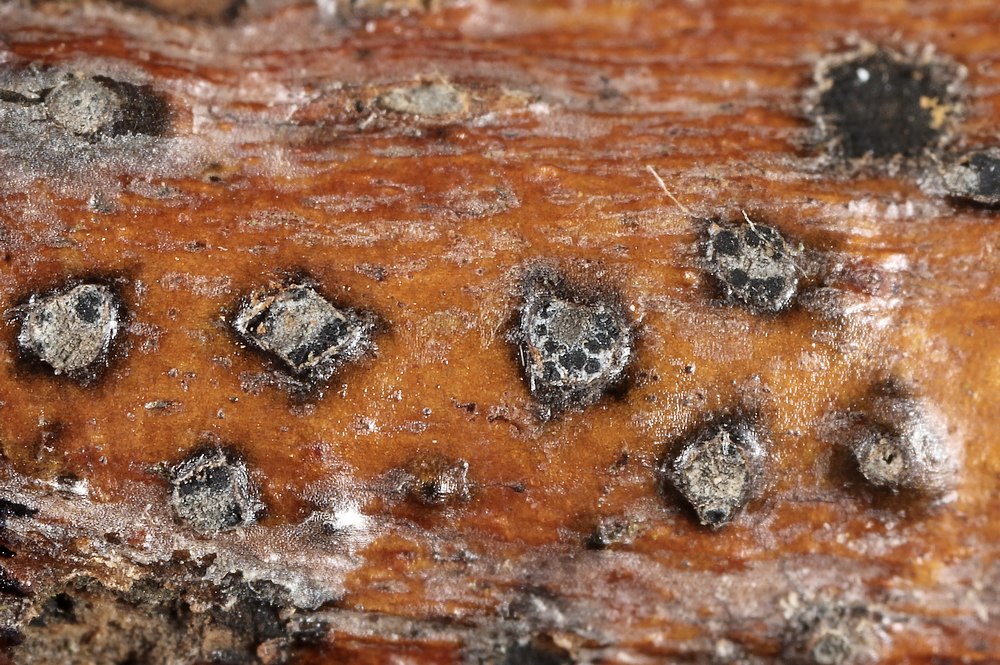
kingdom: Fungi
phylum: Ascomycota
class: Sordariomycetes
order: Diaporthales
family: Valsaceae
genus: Valsa
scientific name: Valsa
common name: kulknippe
